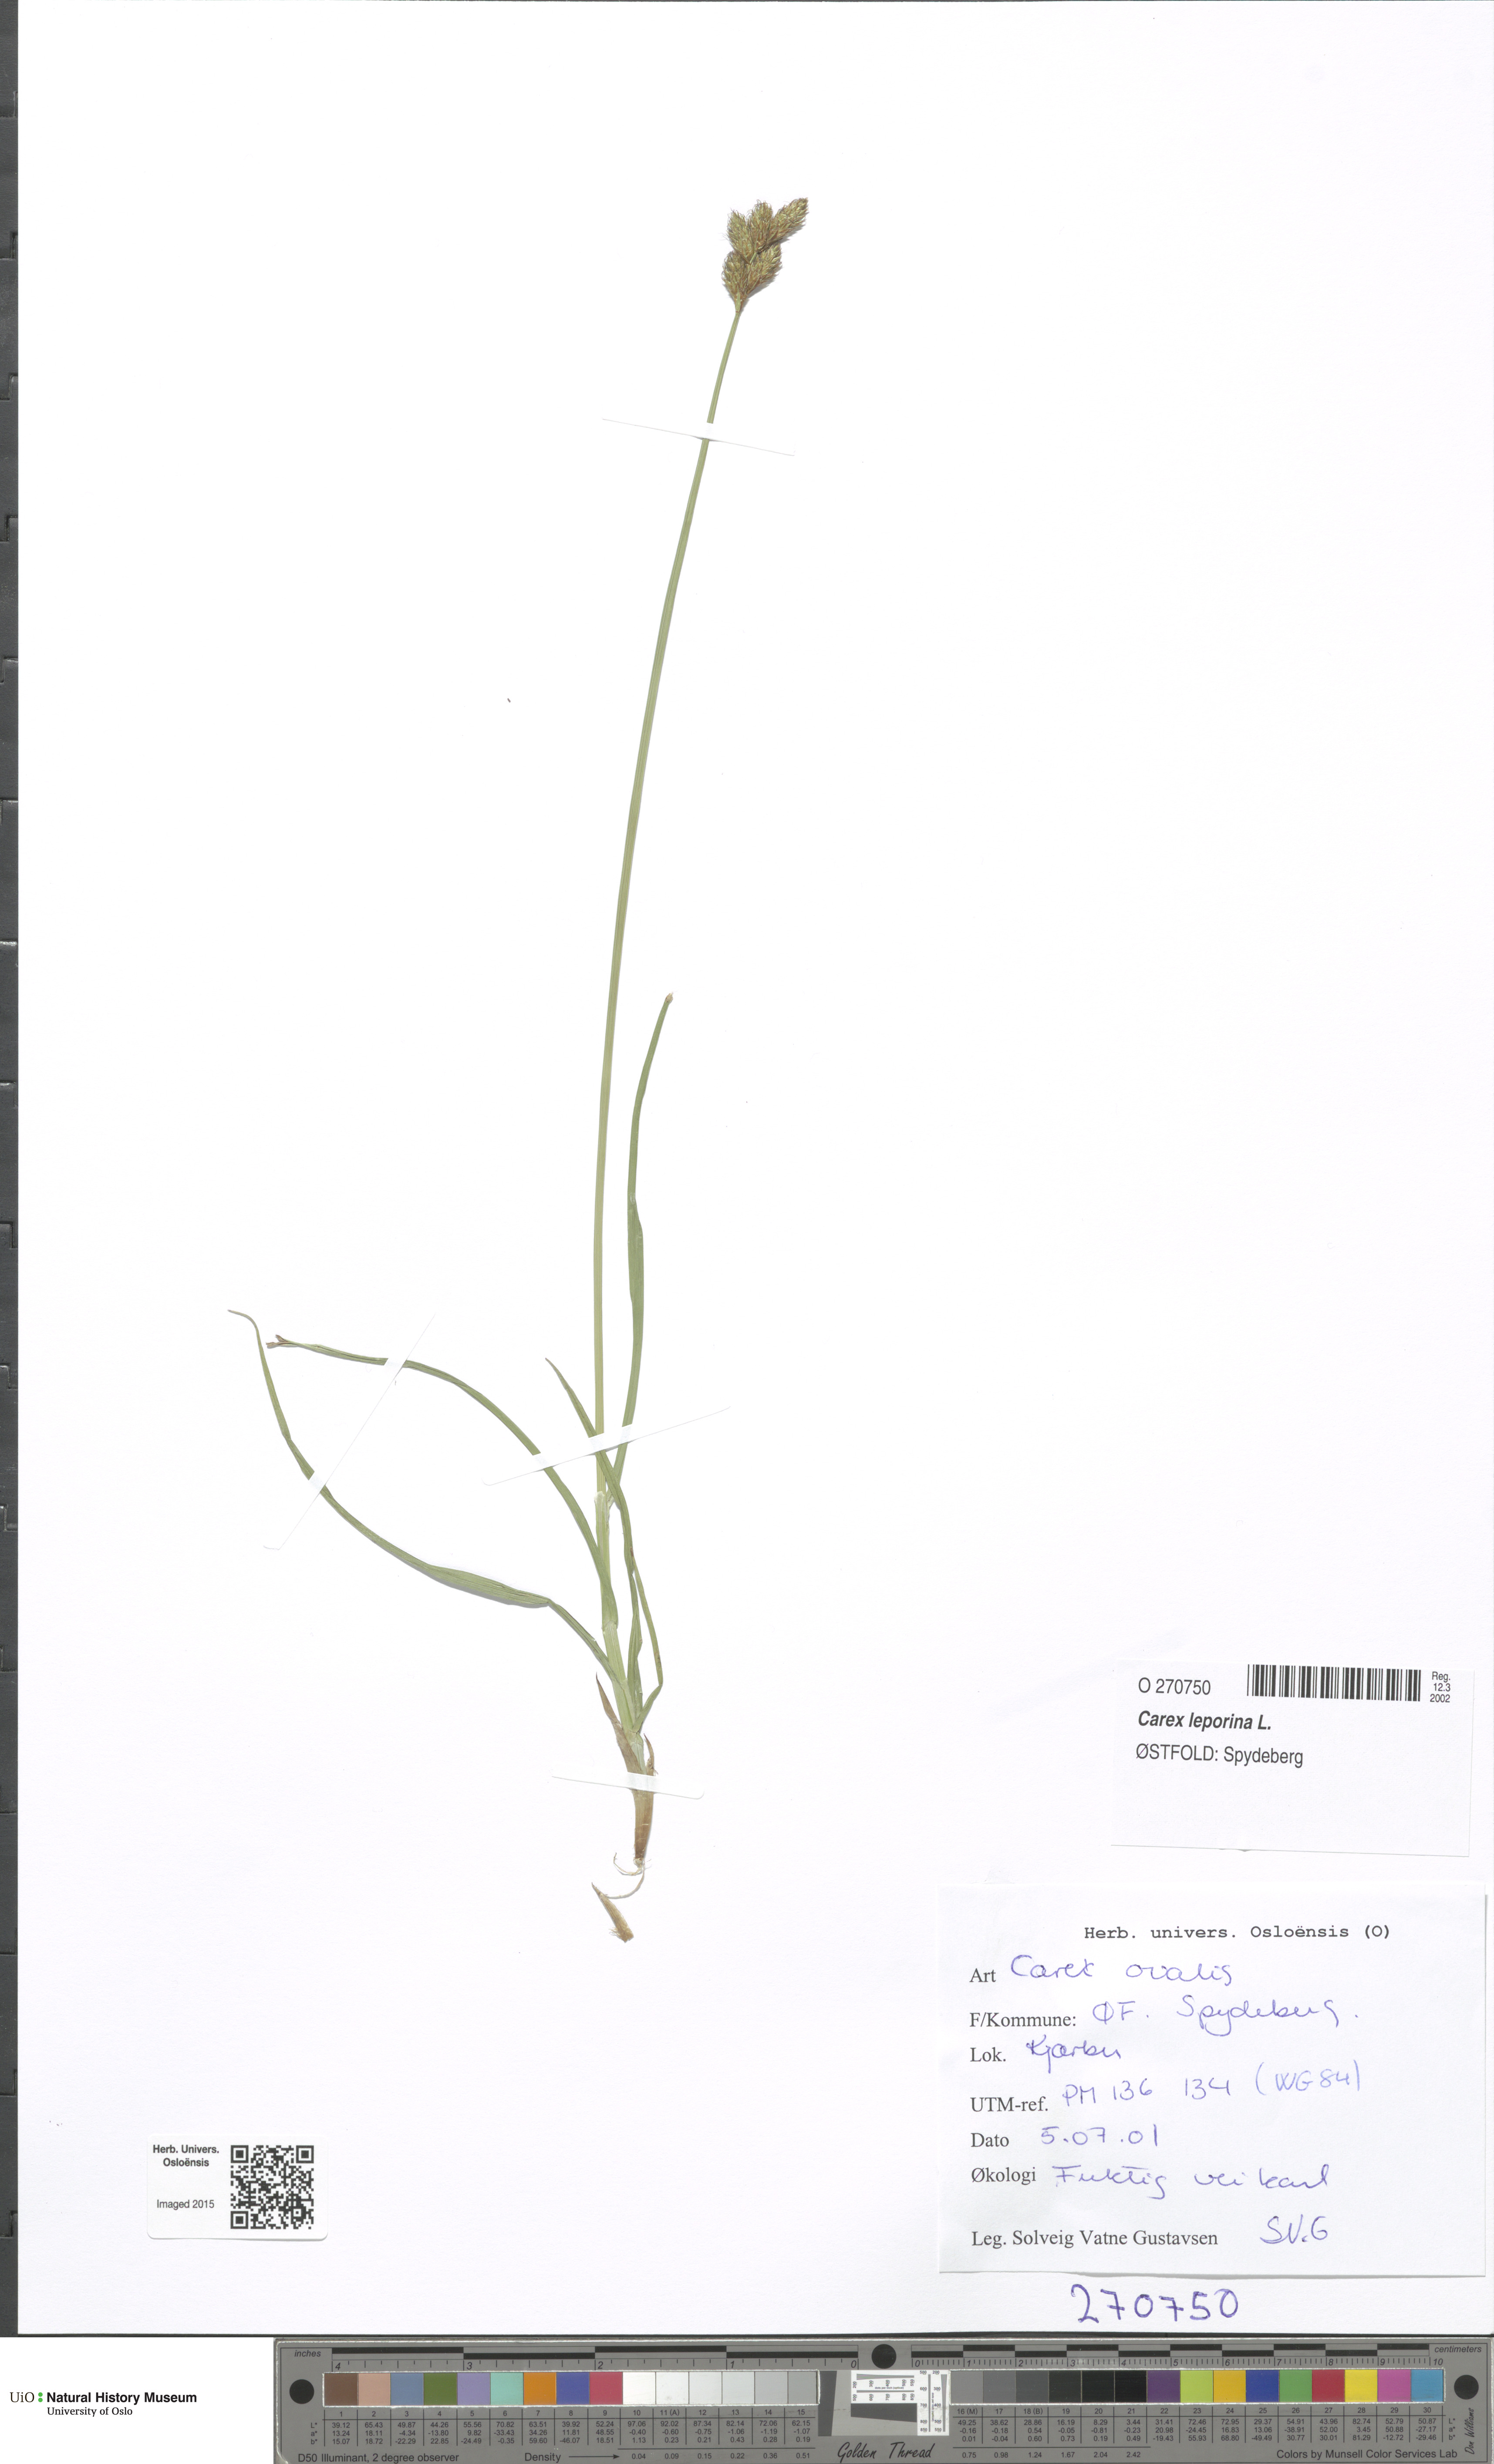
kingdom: Plantae
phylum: Tracheophyta
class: Liliopsida
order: Poales
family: Cyperaceae
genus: Carex
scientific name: Carex leporina
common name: Oval sedge
